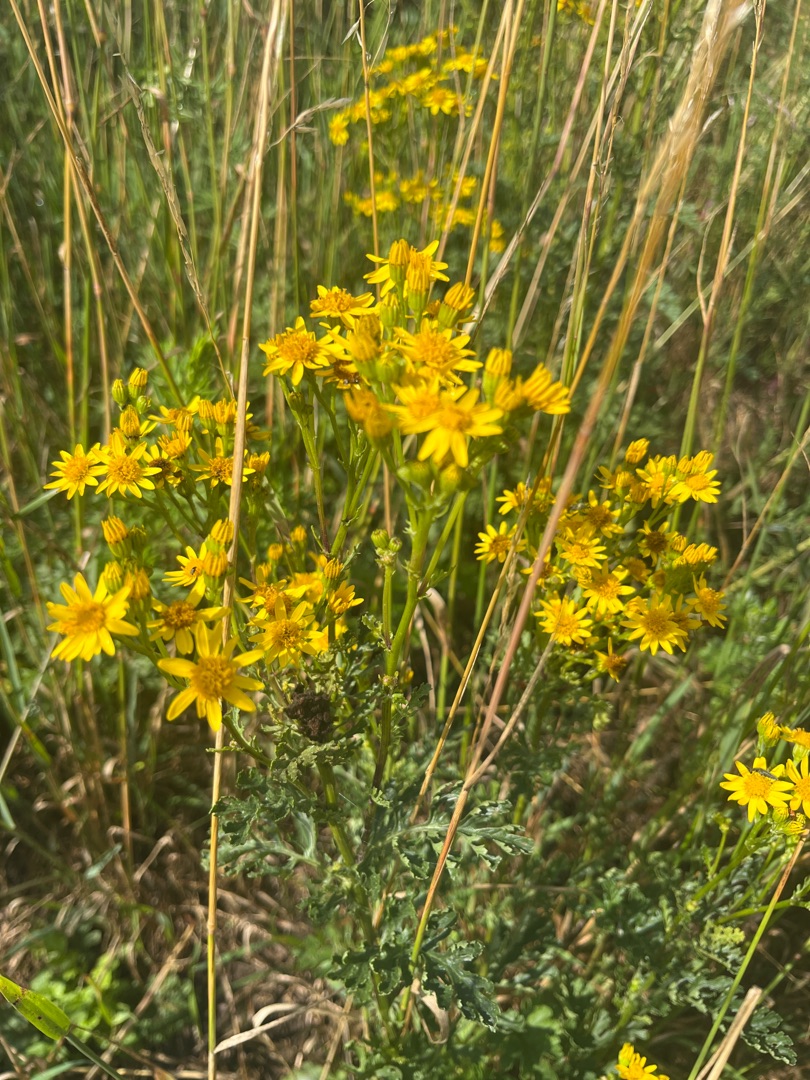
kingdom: Plantae
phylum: Tracheophyta
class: Magnoliopsida
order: Asterales
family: Asteraceae
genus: Jacobaea
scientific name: Jacobaea vulgaris
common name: Eng-brandbæger
